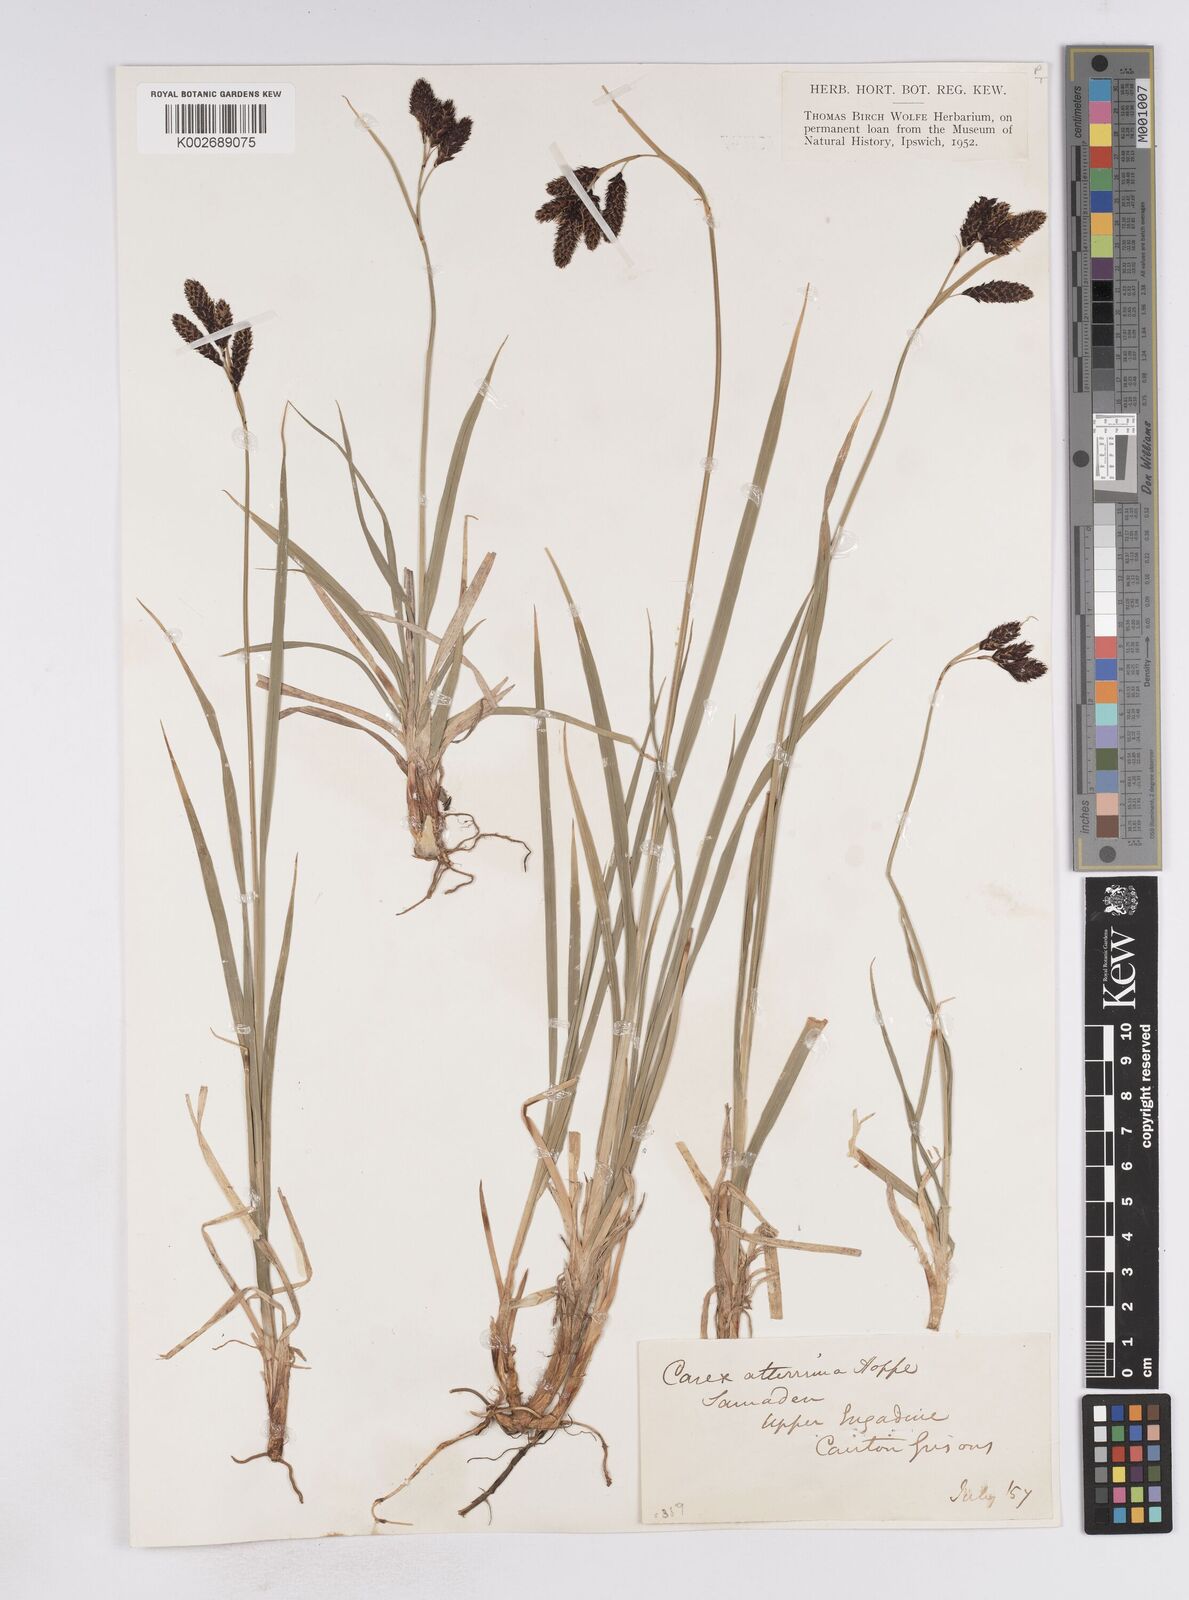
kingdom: Plantae
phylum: Tracheophyta
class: Liliopsida
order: Poales
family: Cyperaceae
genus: Carex
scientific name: Carex atrata
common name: Black alpine sedge
